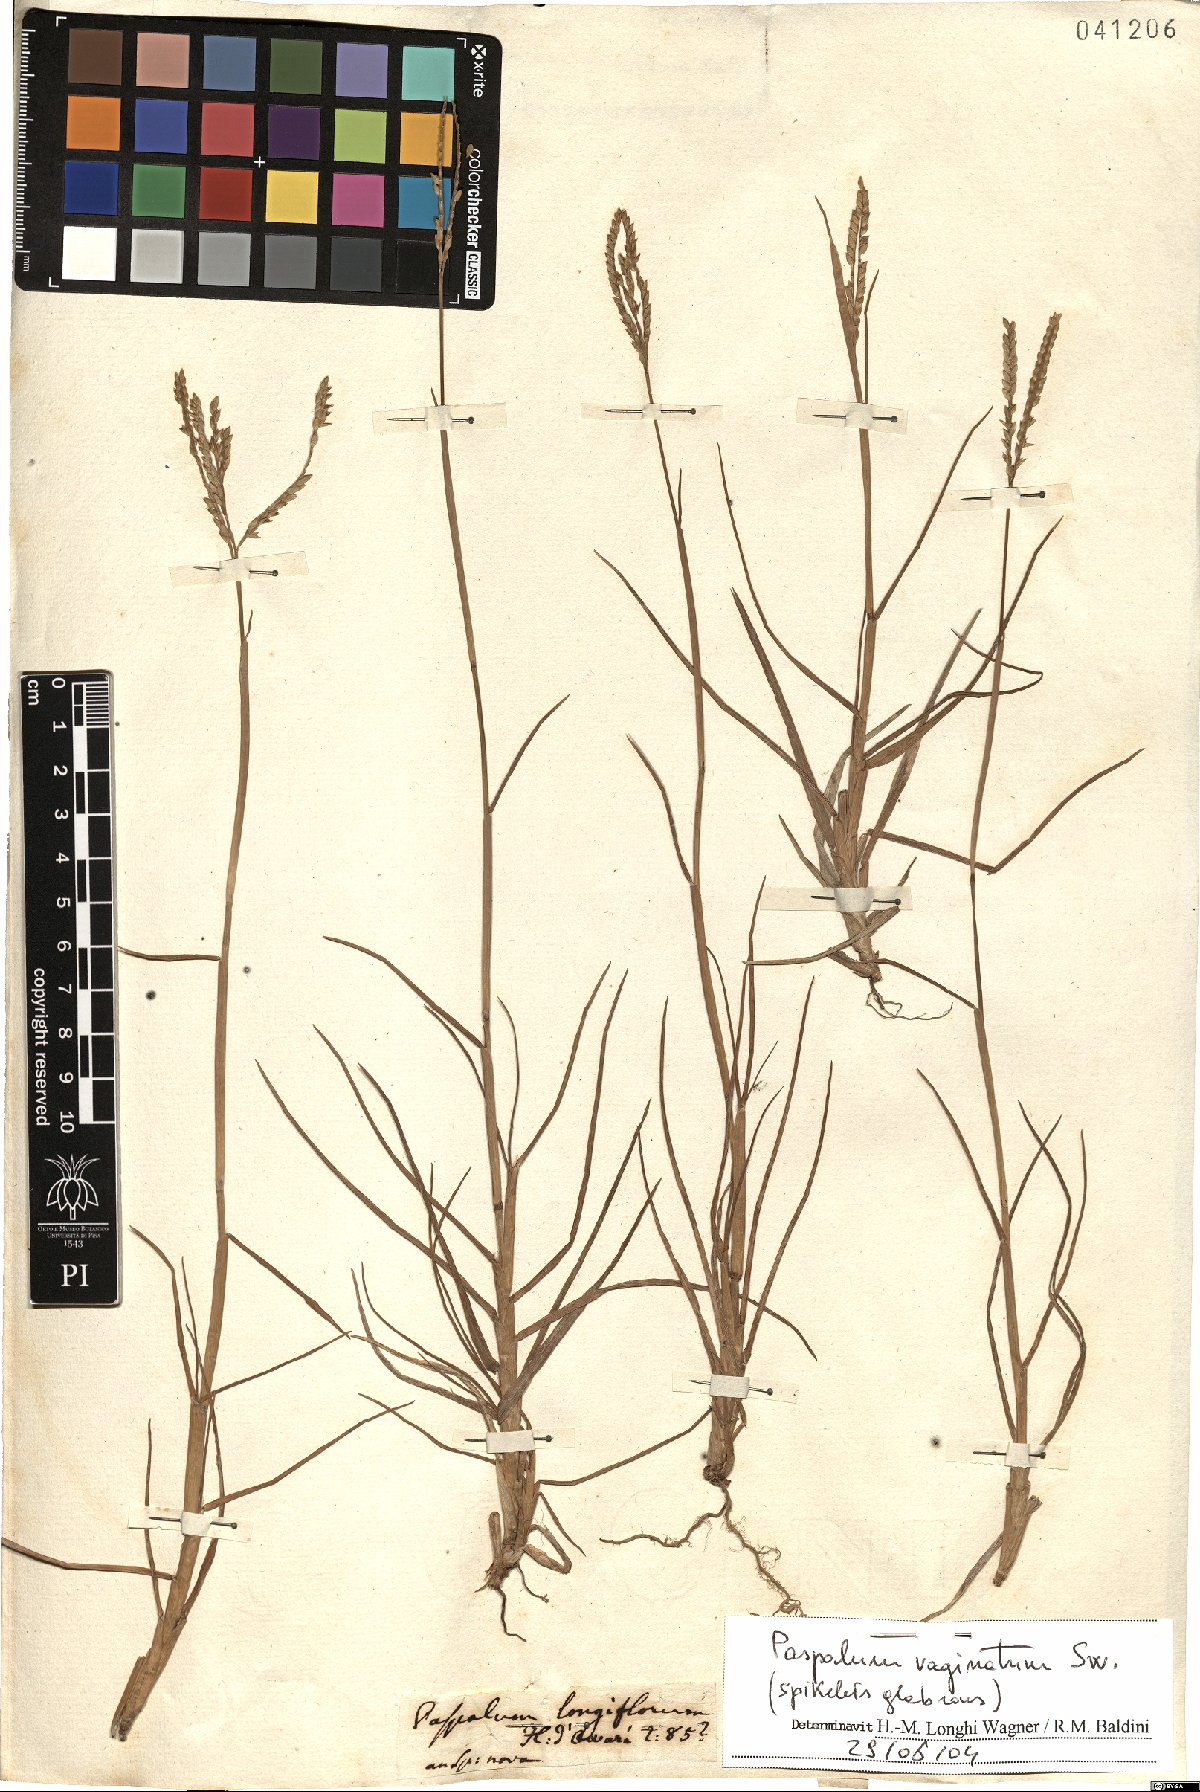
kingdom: Plantae
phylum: Tracheophyta
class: Liliopsida
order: Poales
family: Poaceae
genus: Paspalum
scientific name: Paspalum vaginatum
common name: Seashore paspalum
